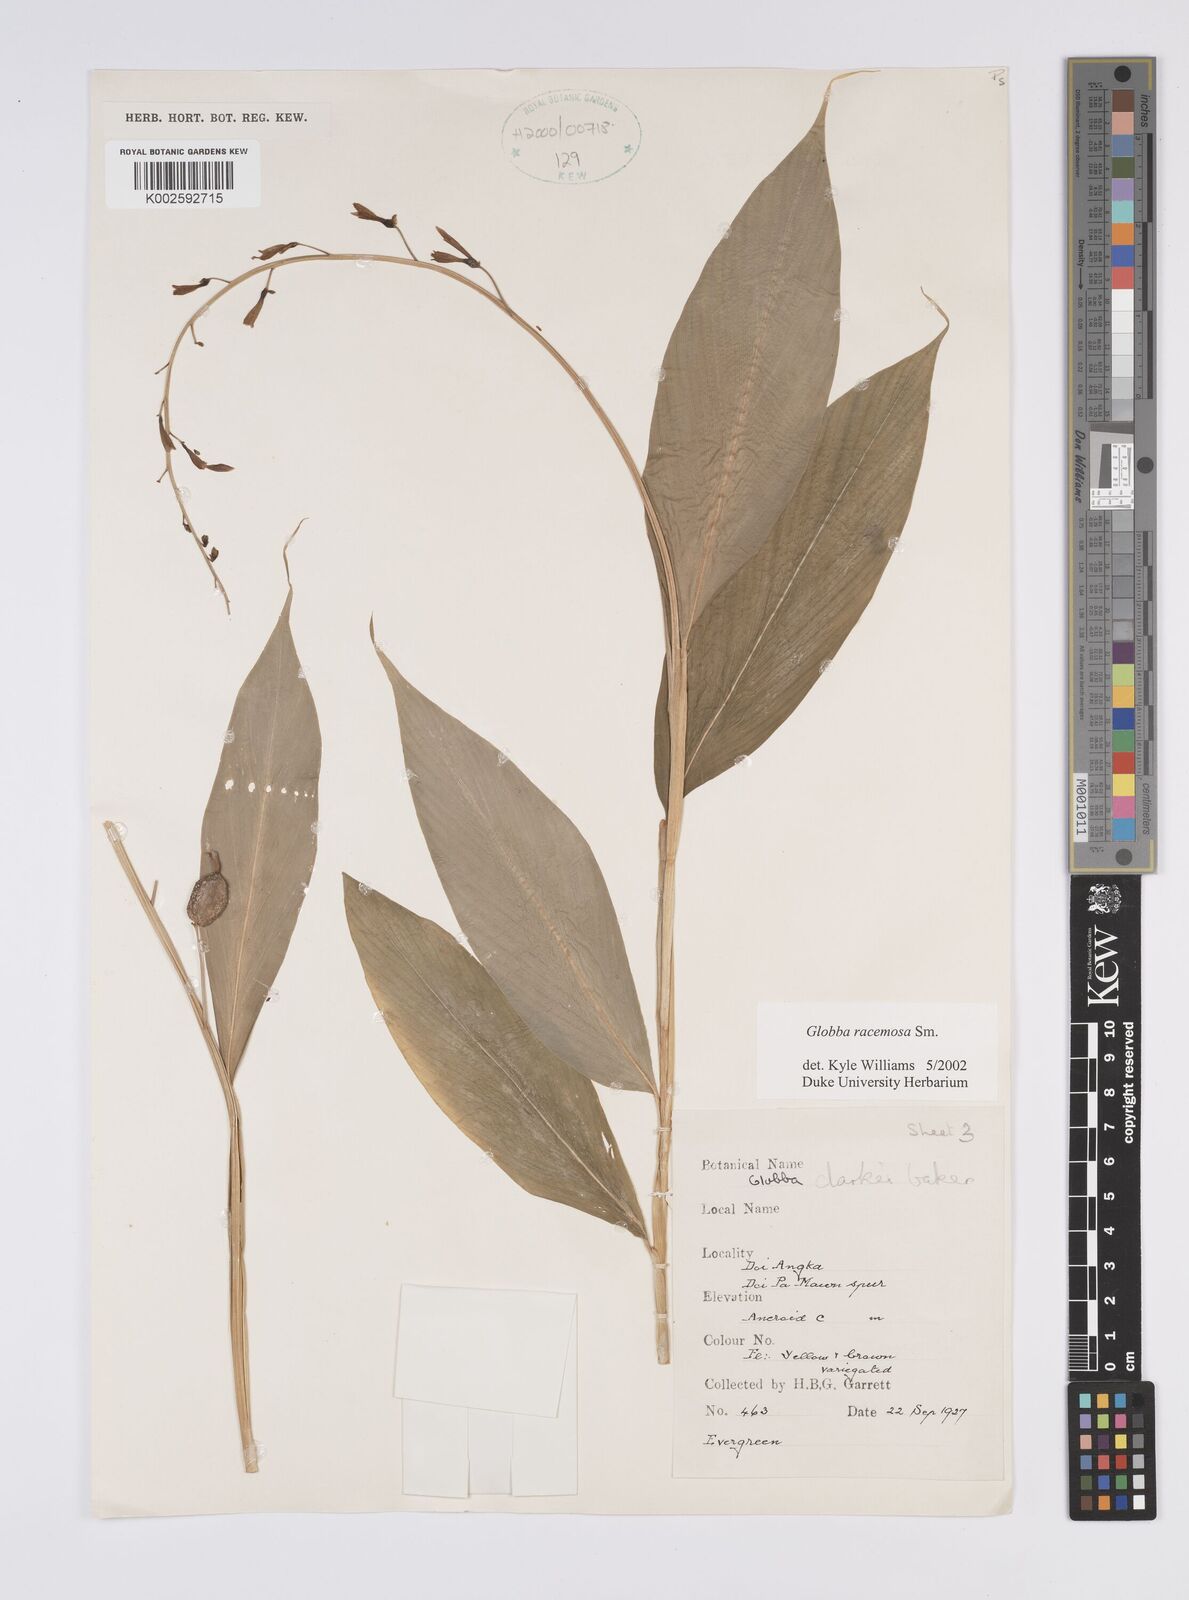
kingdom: Plantae
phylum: Tracheophyta
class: Liliopsida
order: Zingiberales
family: Zingiberaceae
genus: Globba
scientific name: Globba racemosa
